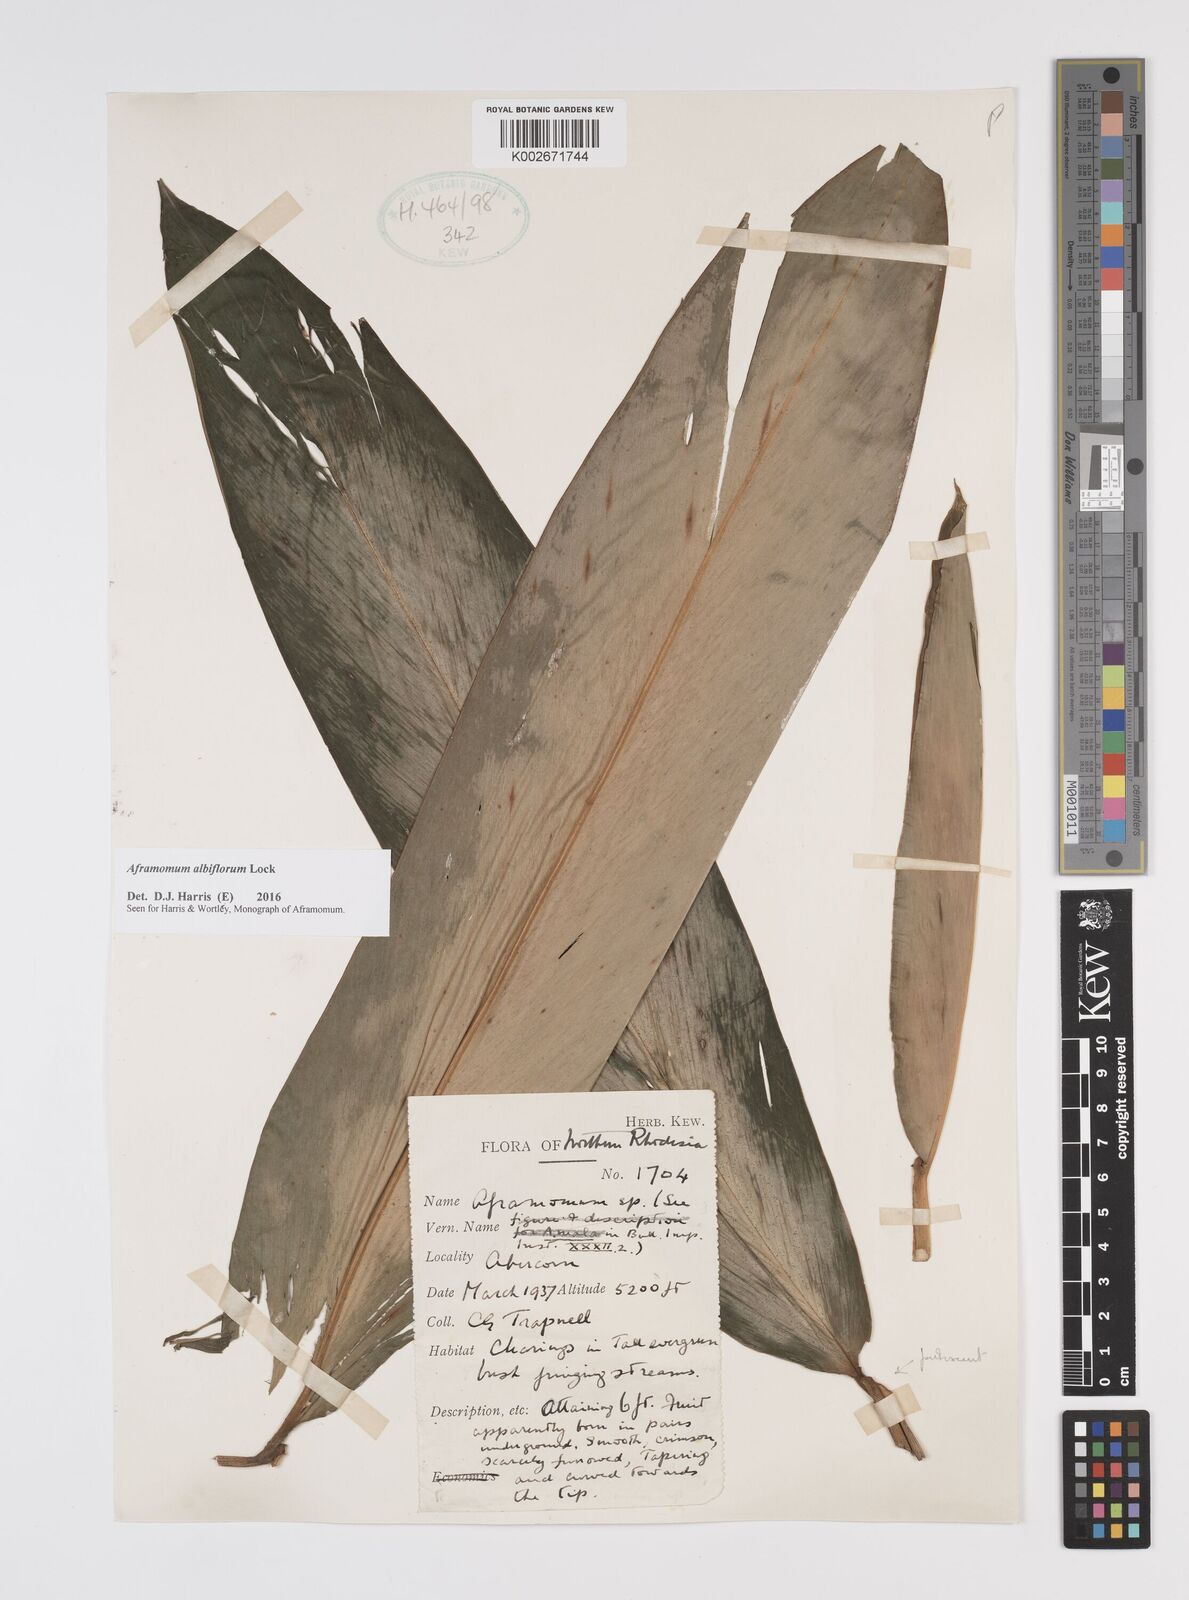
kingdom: Plantae
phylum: Tracheophyta
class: Liliopsida
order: Zingiberales
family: Zingiberaceae
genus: Aframomum
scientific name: Aframomum albiflorum
